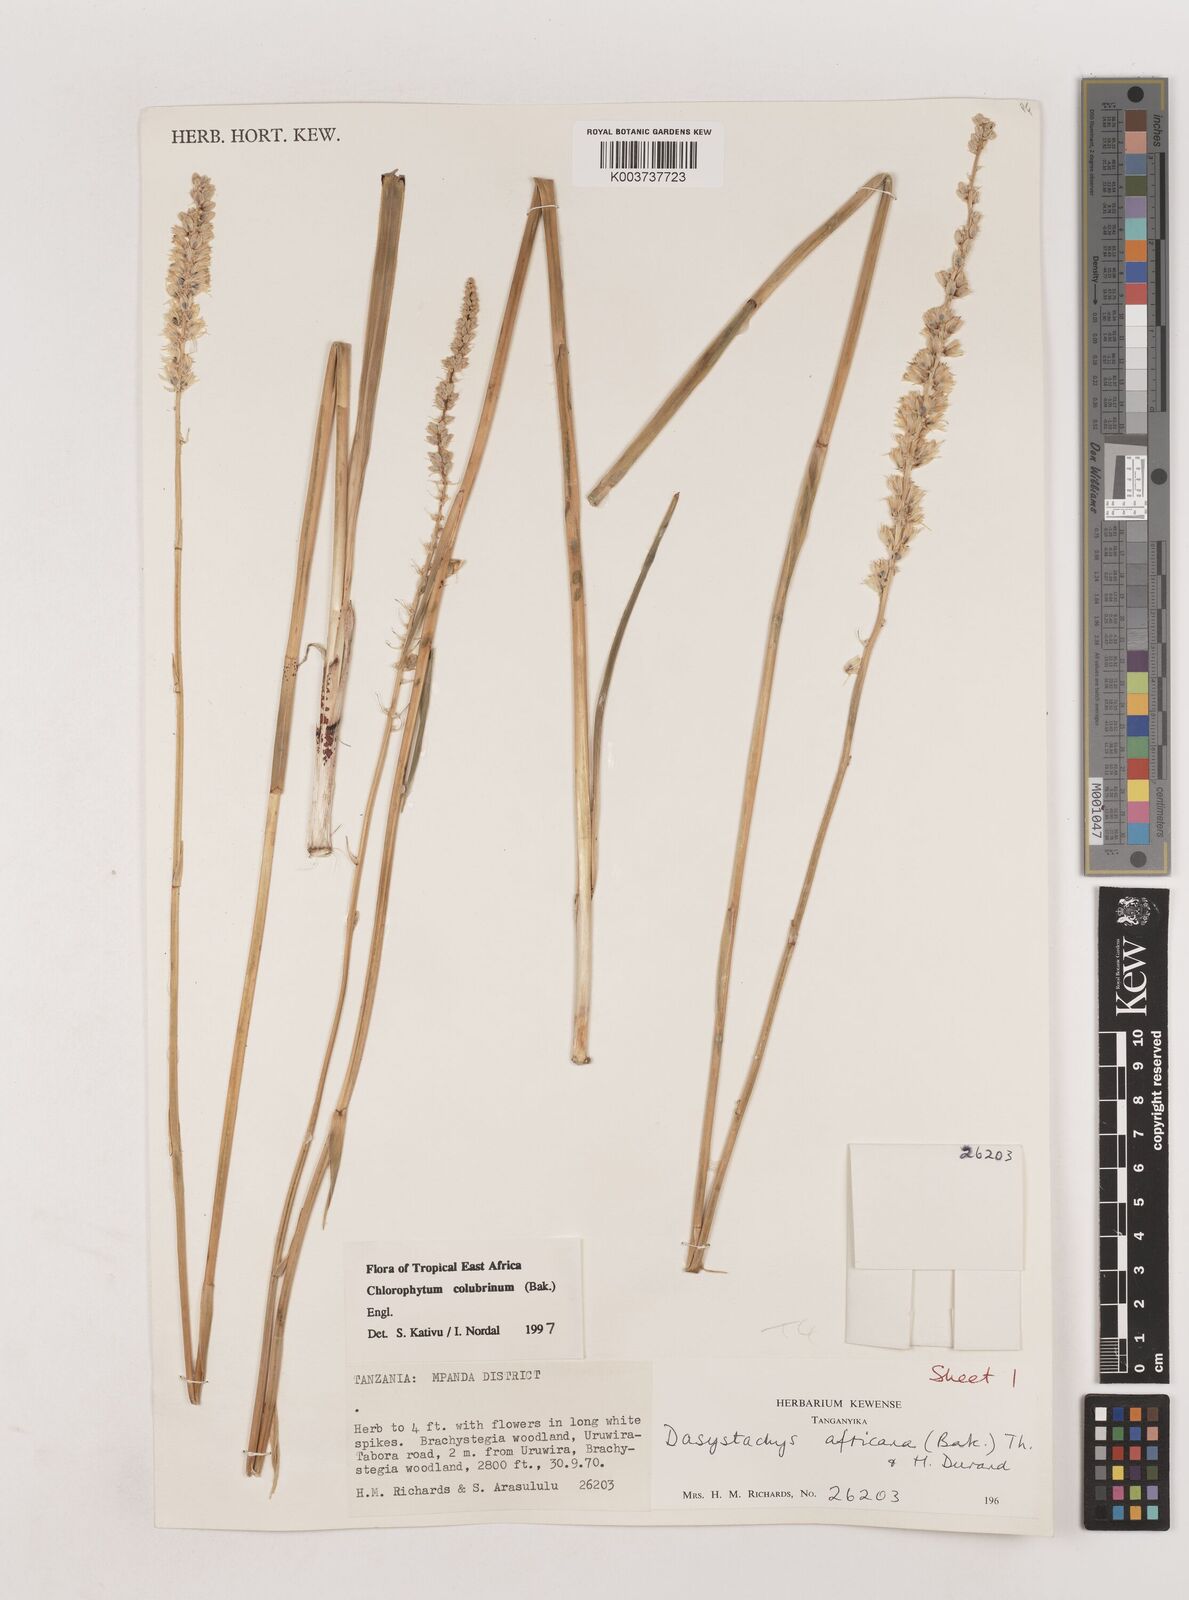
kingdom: Plantae
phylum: Tracheophyta
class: Liliopsida
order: Asparagales
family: Asparagaceae
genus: Chlorophytum
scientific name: Chlorophytum colubrinum
